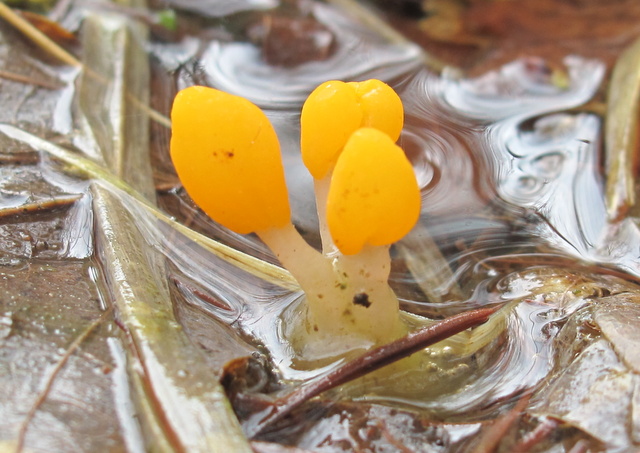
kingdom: Fungi
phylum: Ascomycota
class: Leotiomycetes
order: Helotiales
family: Cenangiaceae
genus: Mitrula
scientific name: Mitrula paludosa
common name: gul nøkketunge
